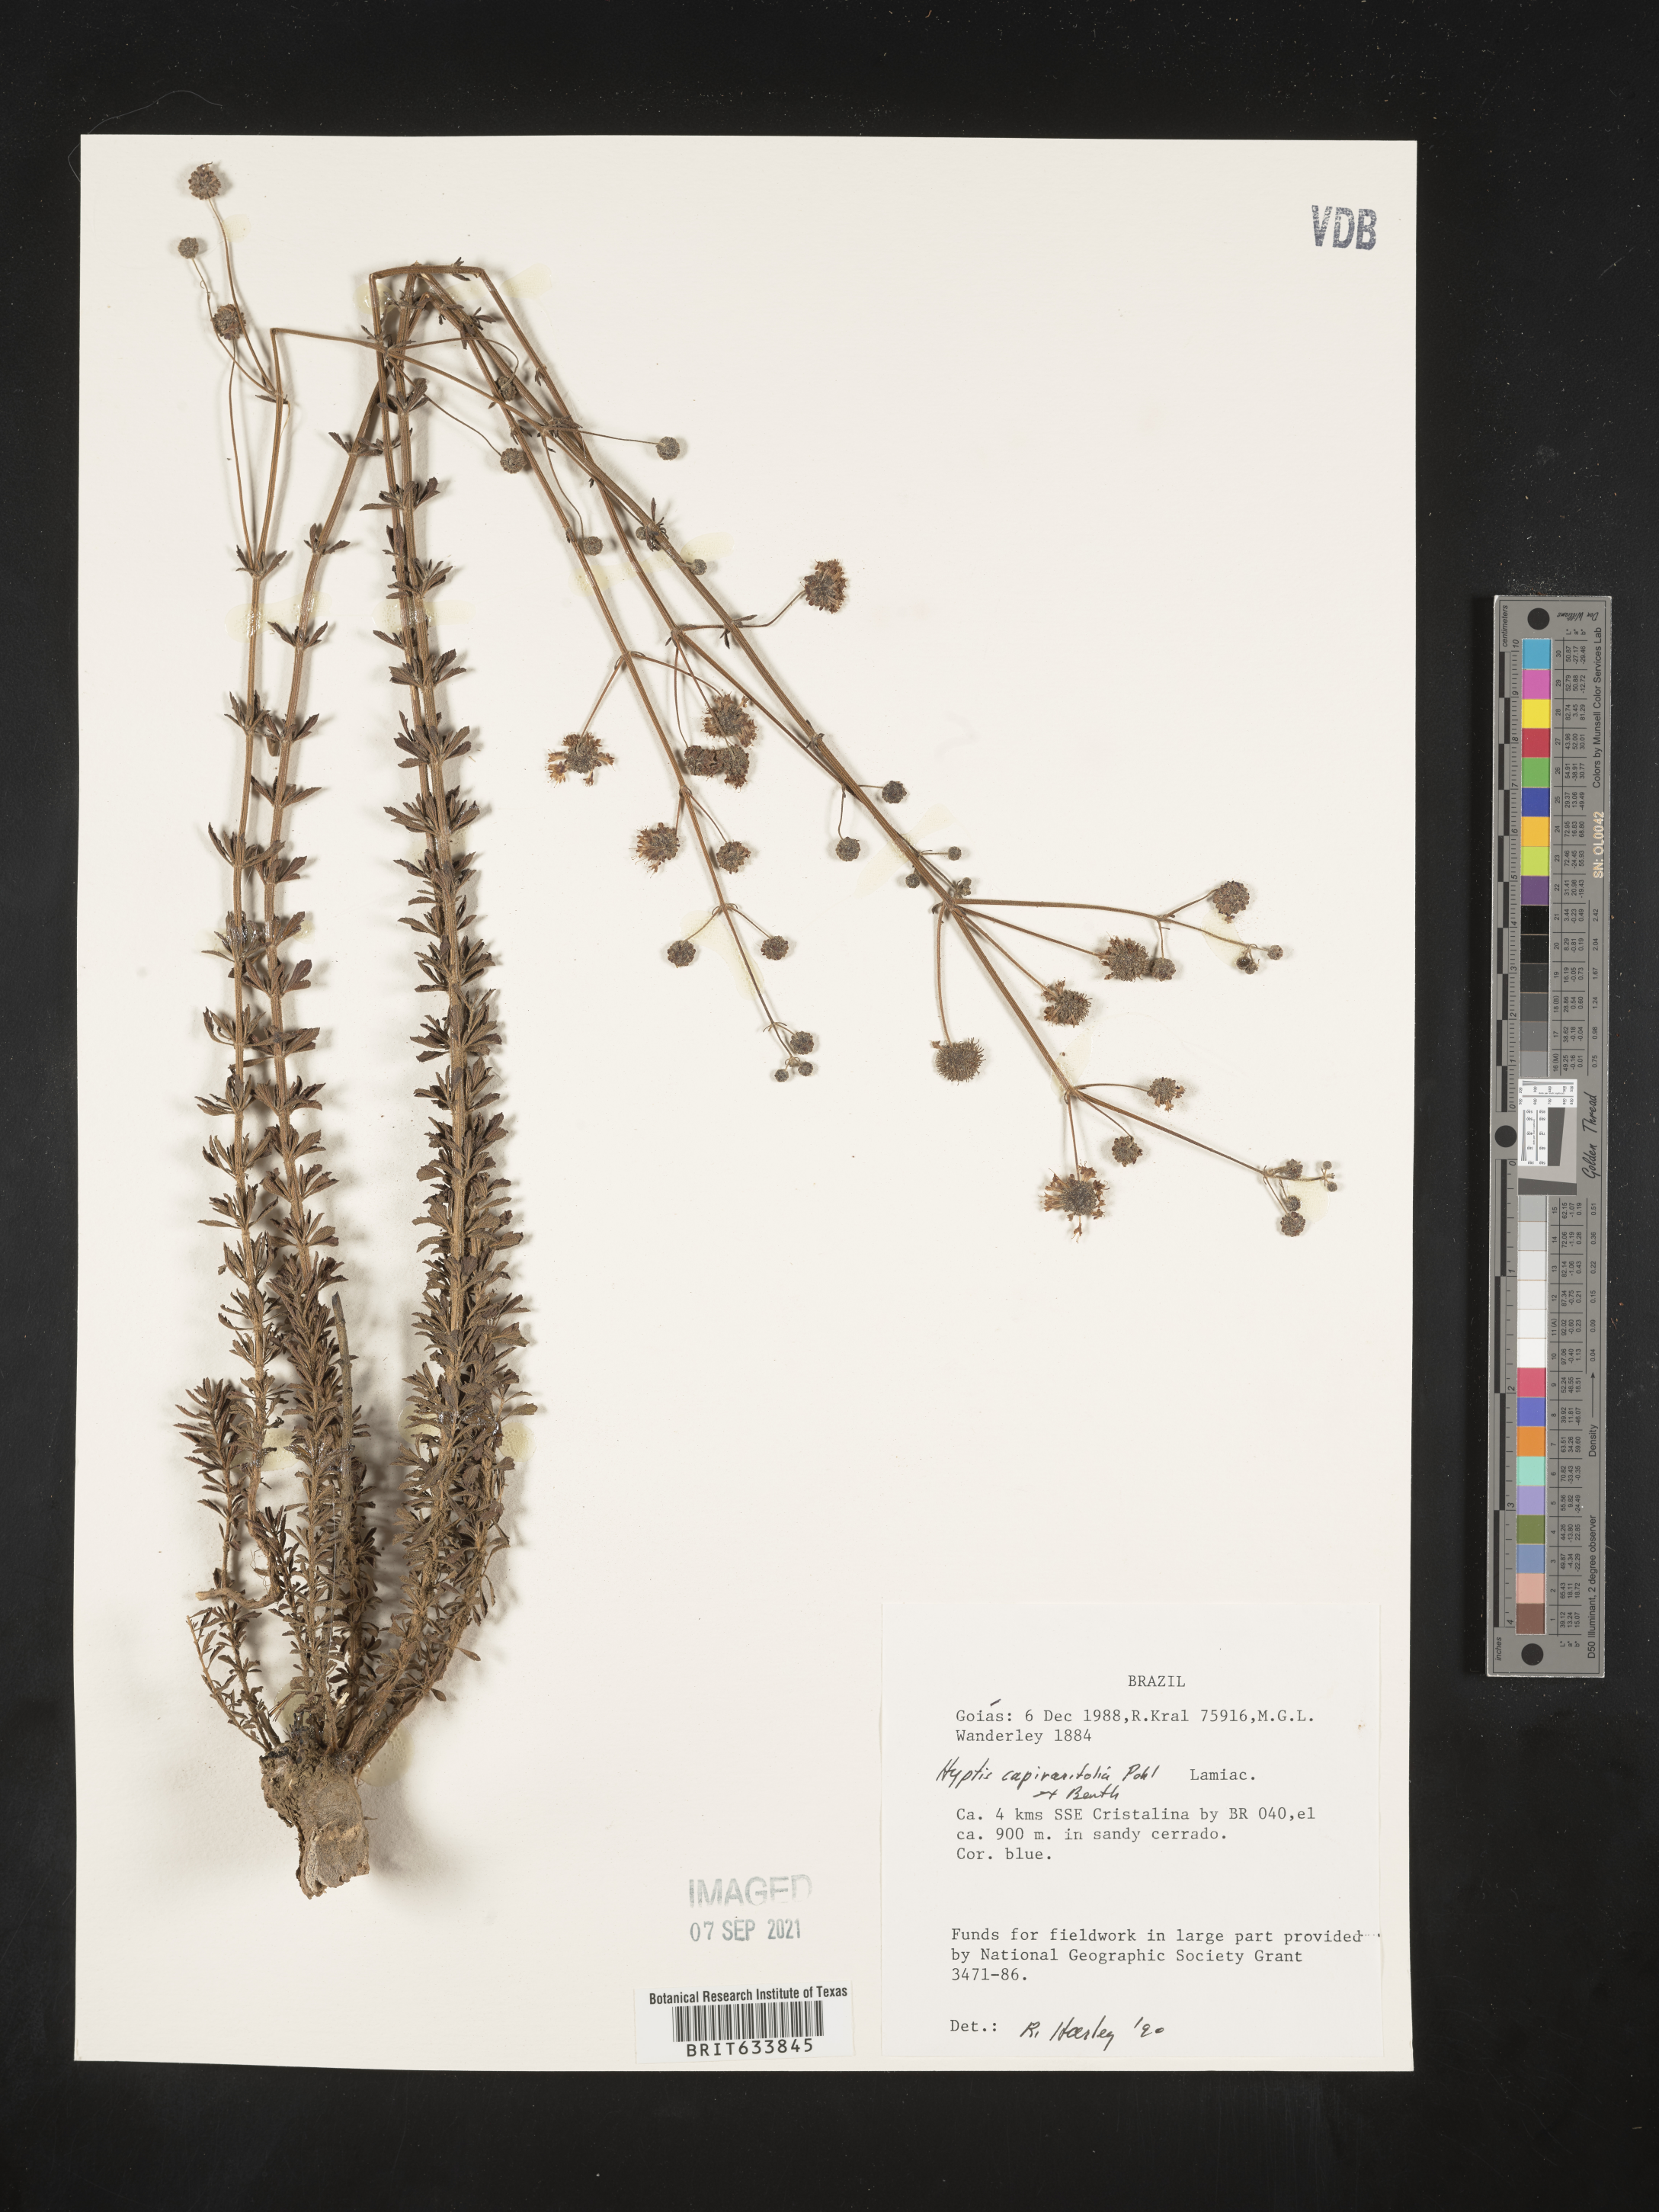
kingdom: Plantae
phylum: Tracheophyta
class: Magnoliopsida
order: Lamiales
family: Lamiaceae
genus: Hyptis
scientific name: Hyptis
